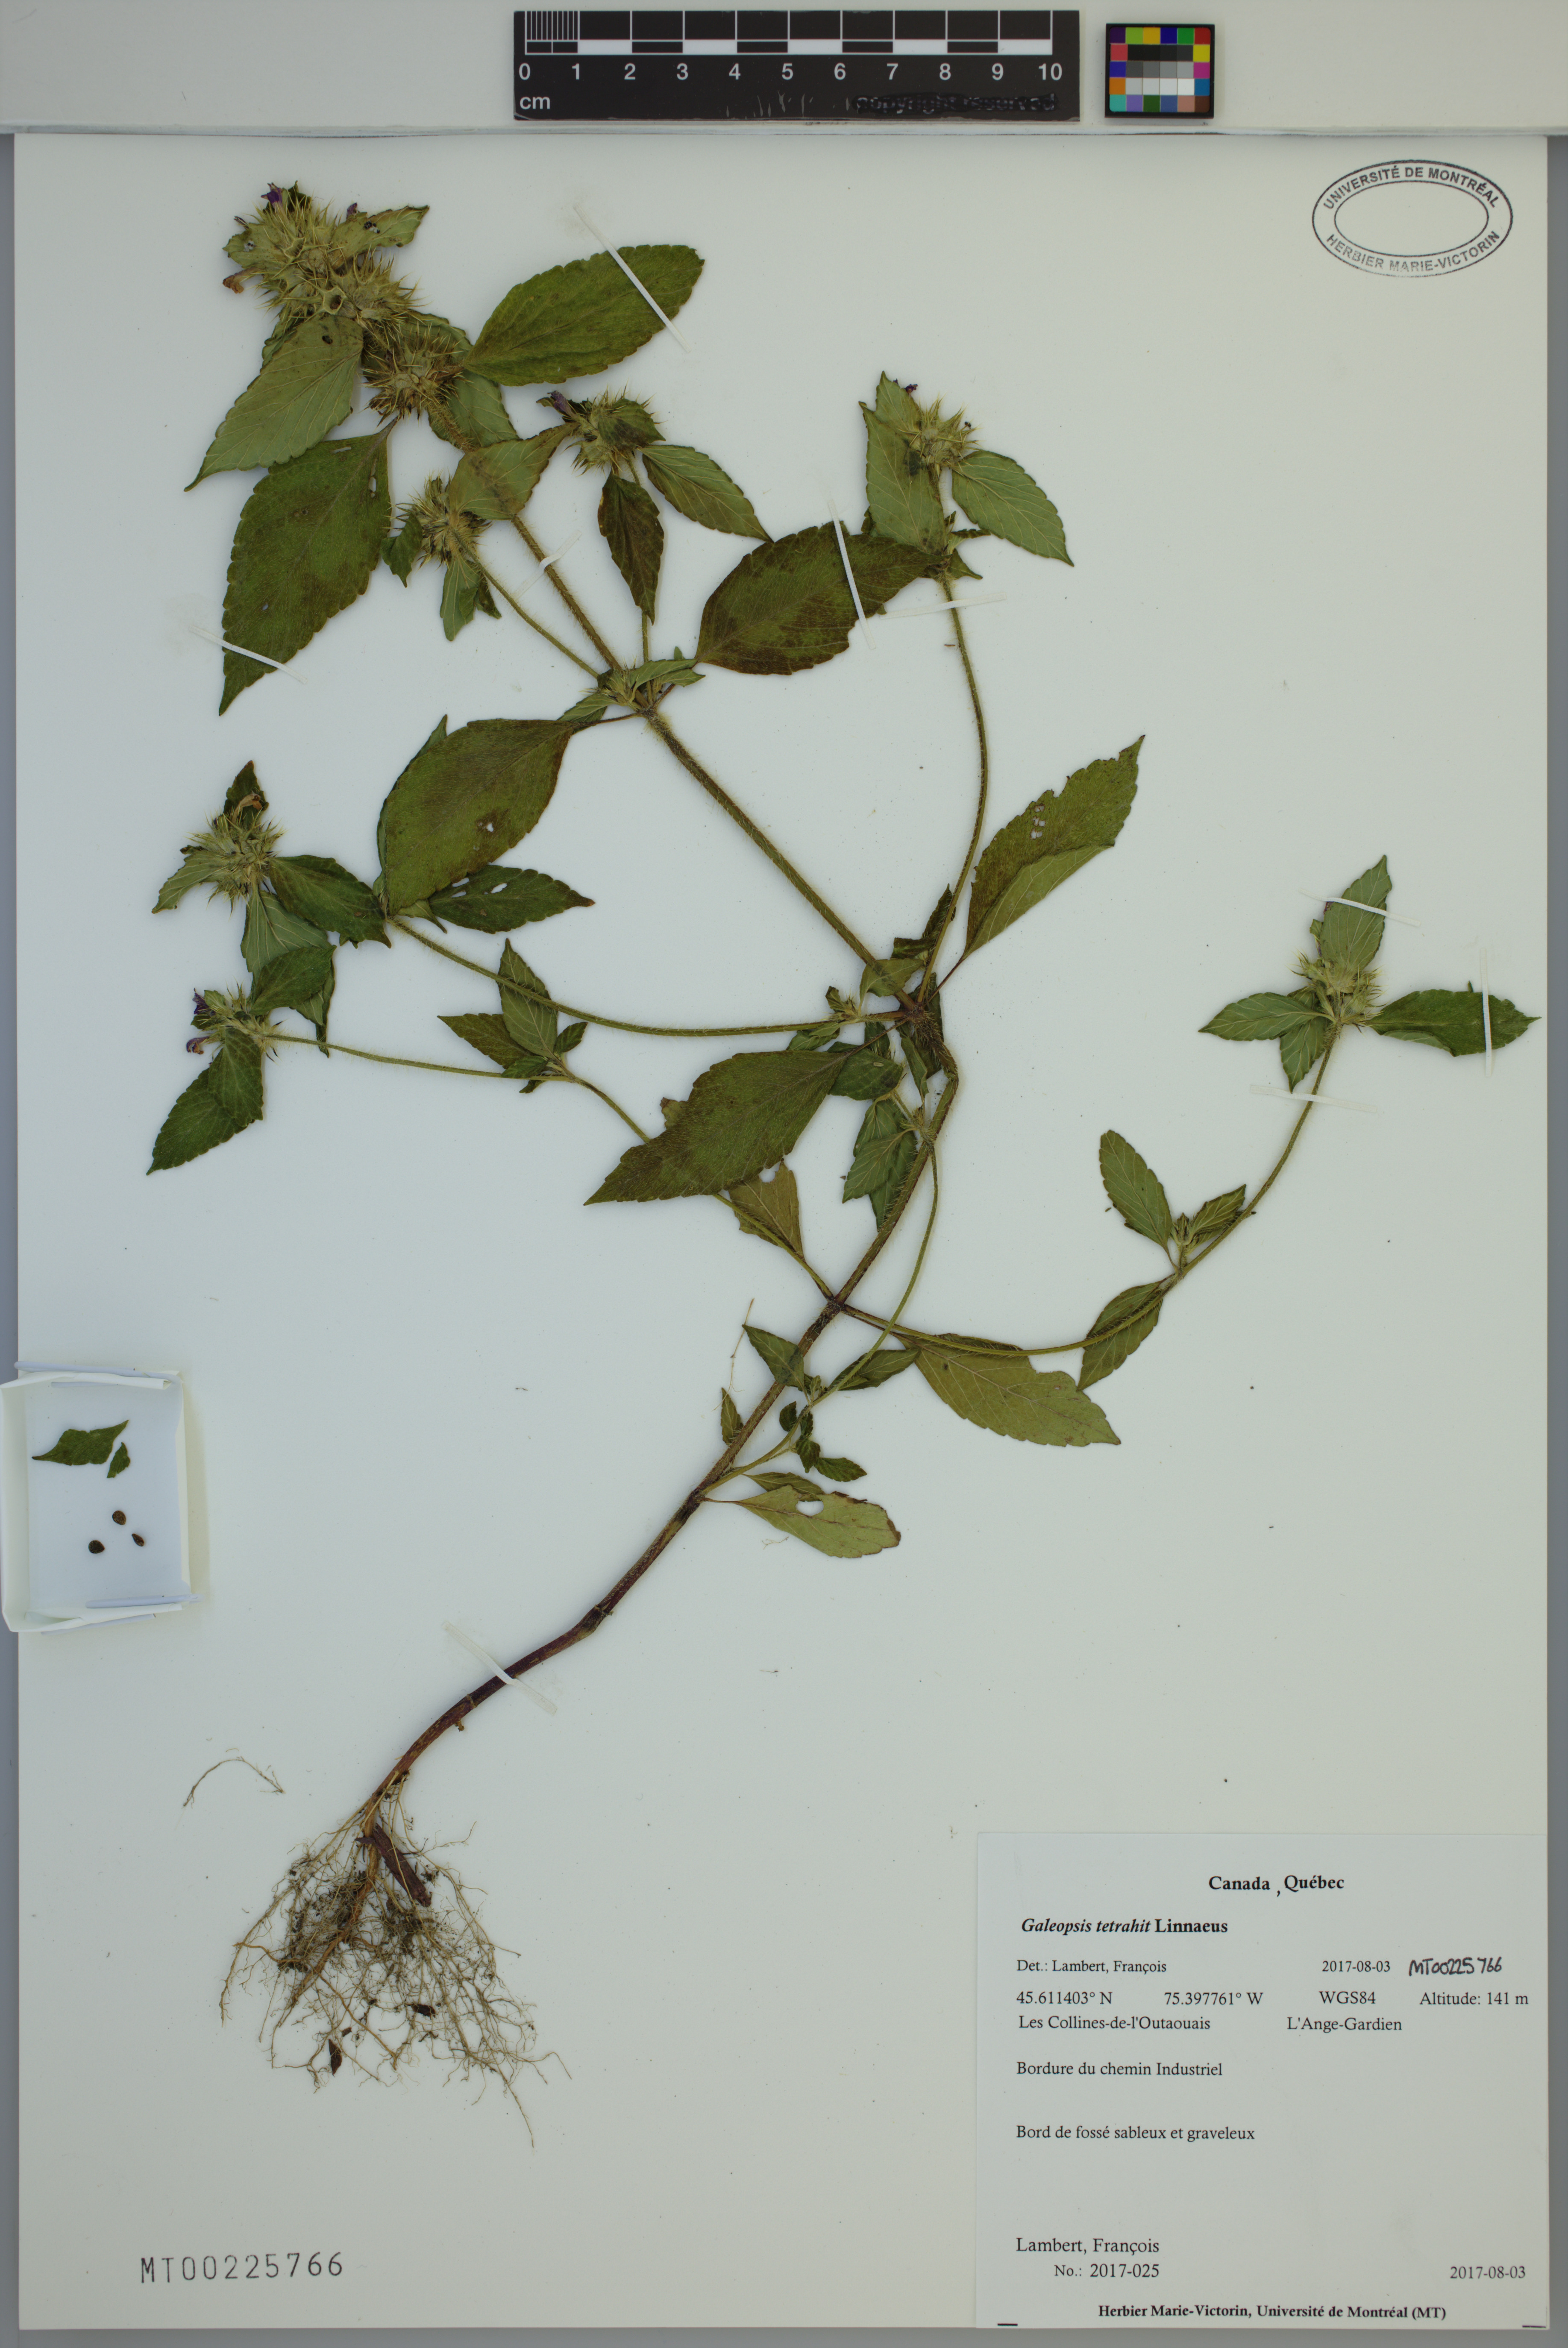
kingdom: Plantae
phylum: Tracheophyta
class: Magnoliopsida
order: Lamiales
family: Lamiaceae
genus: Galeopsis
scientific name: Galeopsis tetrahit
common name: Common hemp-nettle
